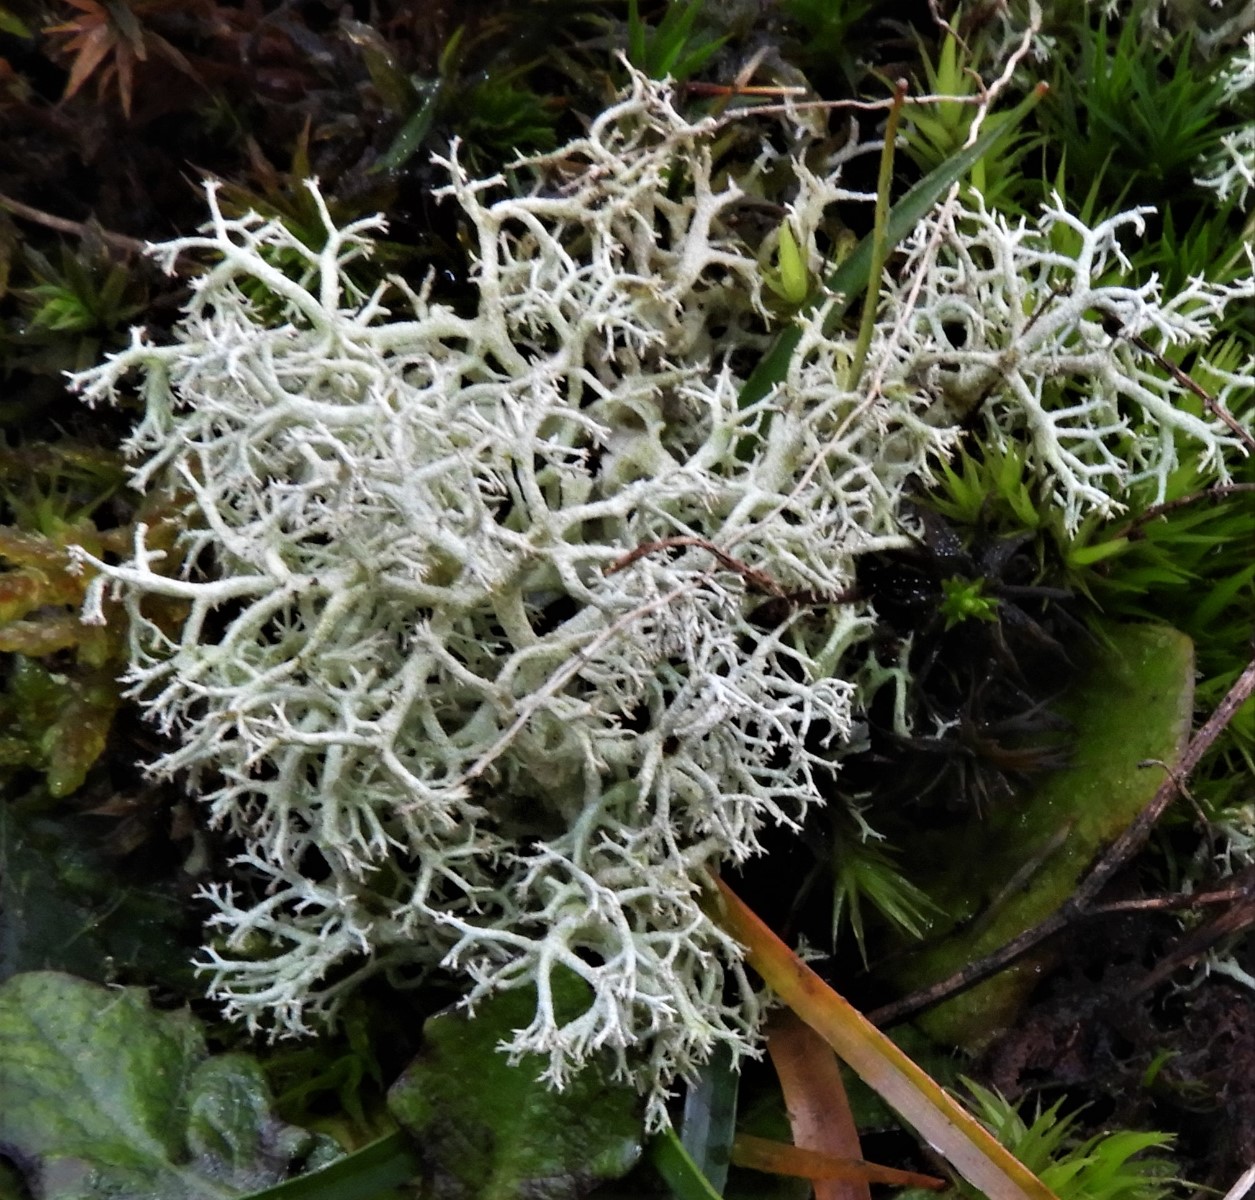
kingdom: Fungi
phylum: Ascomycota
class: Lecanoromycetes
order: Lecanorales
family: Cladoniaceae
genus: Cladonia
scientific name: Cladonia portentosa
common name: hede-rensdyrlav
